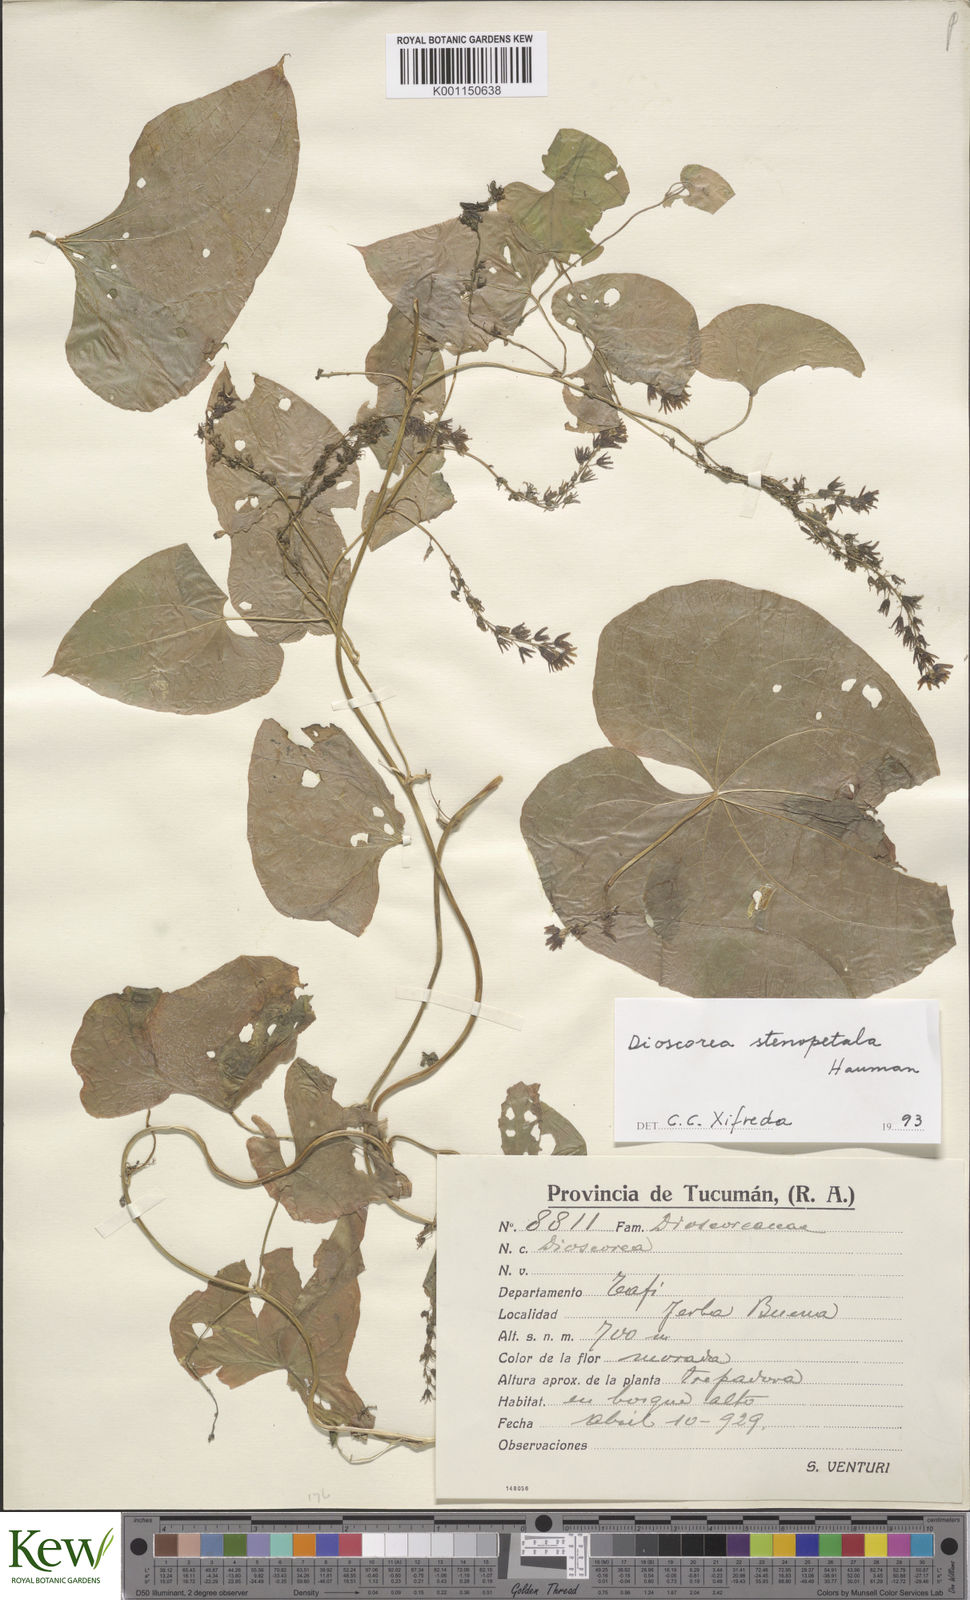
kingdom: Plantae
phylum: Tracheophyta
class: Liliopsida
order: Dioscoreales
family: Dioscoreaceae
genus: Dioscorea
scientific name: Dioscorea stenopetala
